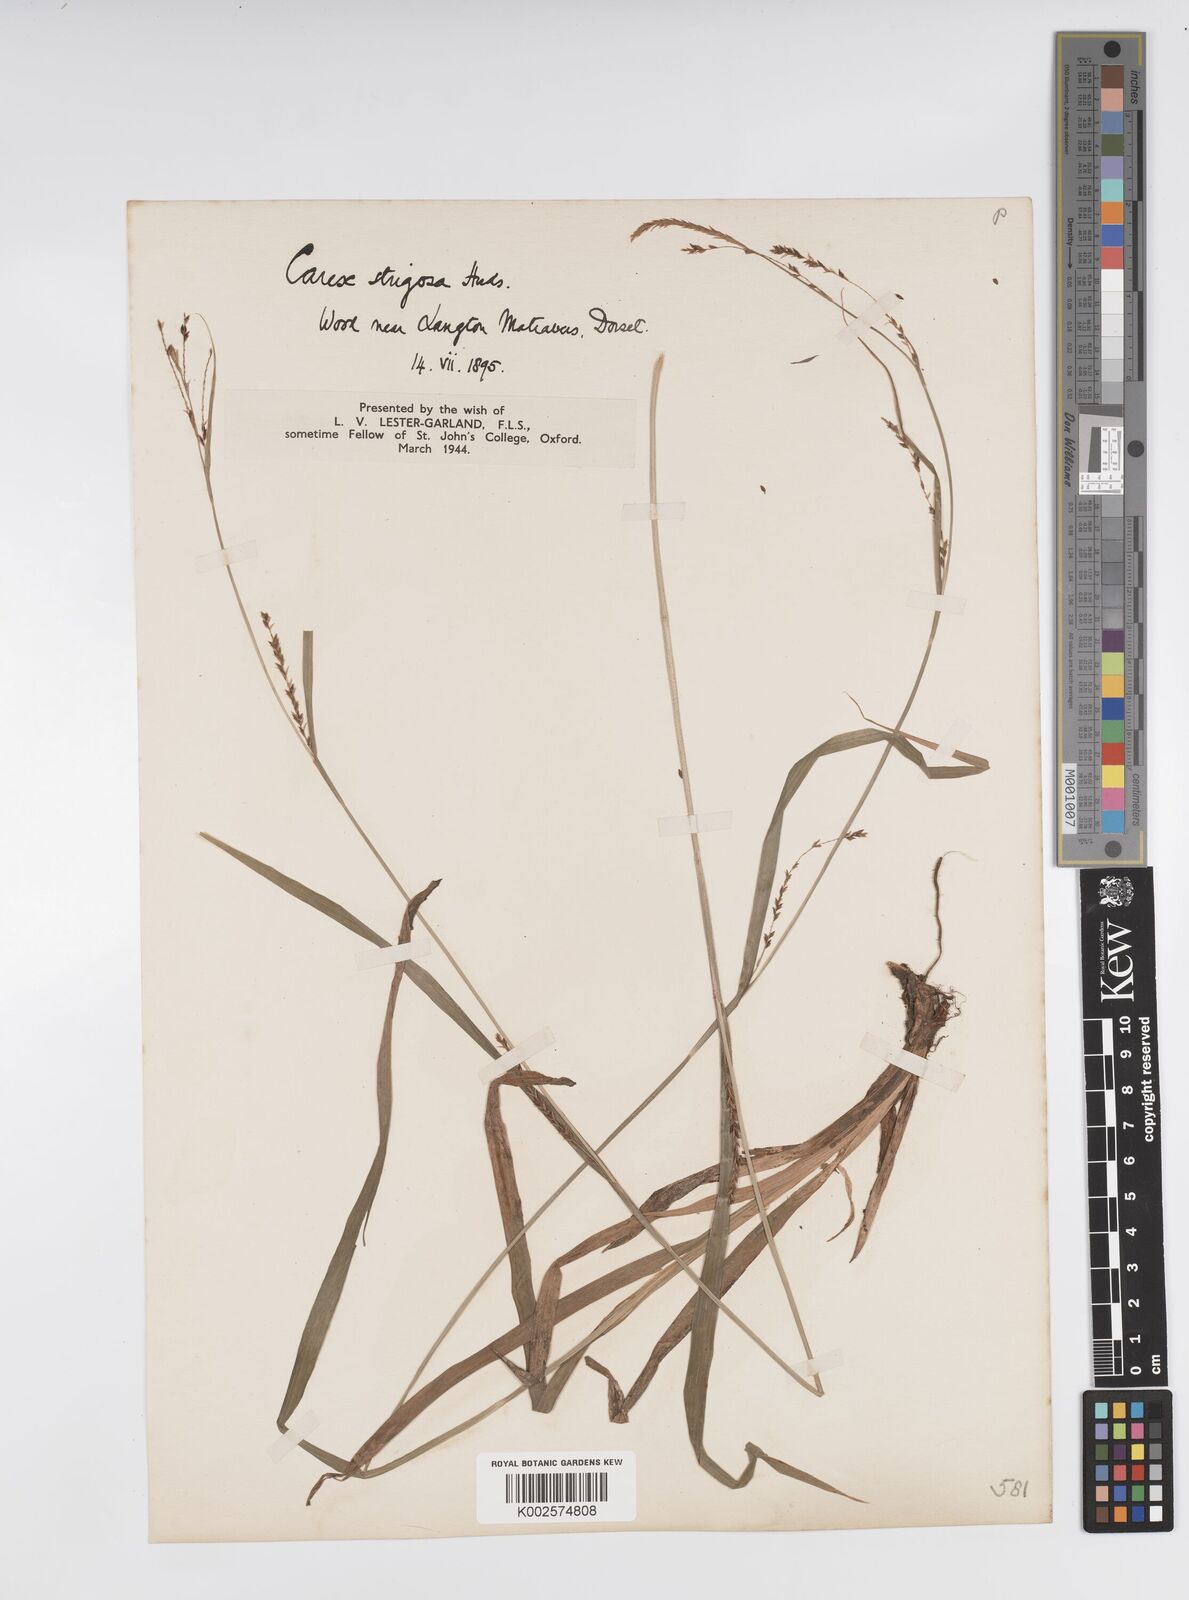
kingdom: Plantae
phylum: Tracheophyta
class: Liliopsida
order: Poales
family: Cyperaceae
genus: Carex
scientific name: Carex strigosa
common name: Thin-spiked wood-sedge
